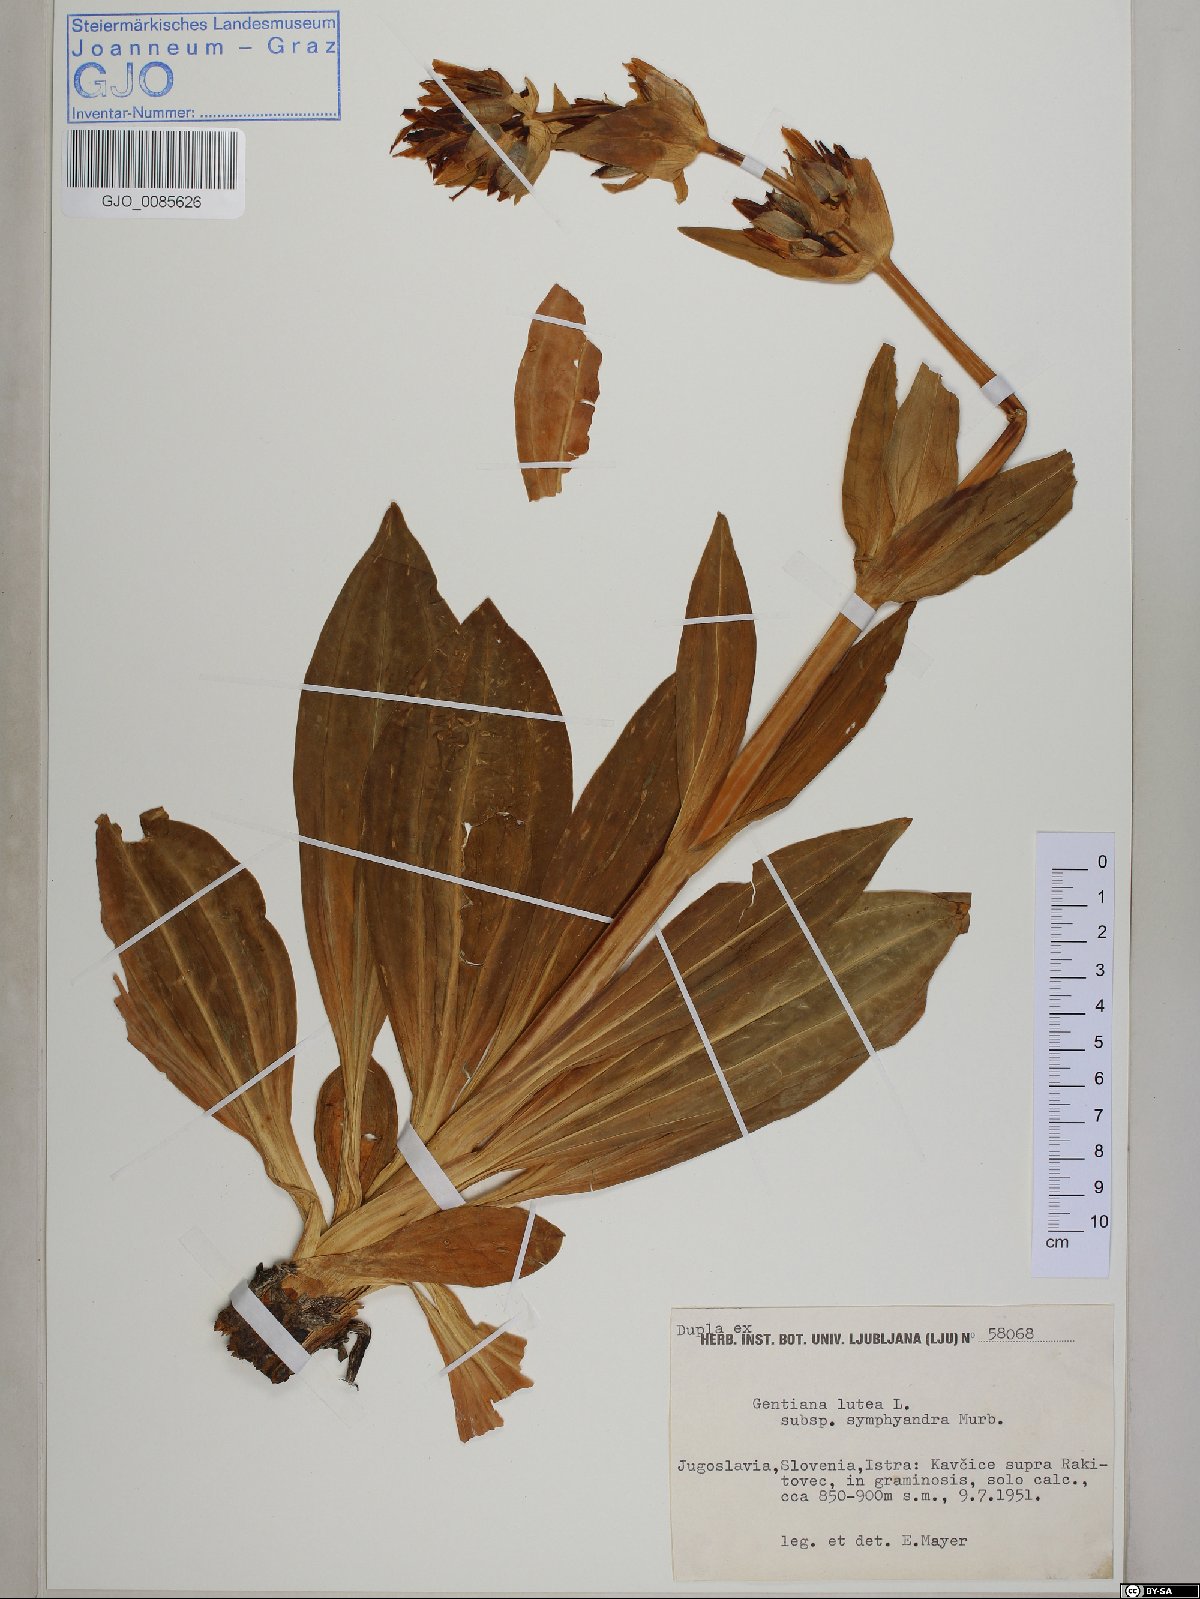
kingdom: Plantae
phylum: Tracheophyta
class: Magnoliopsida
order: Gentianales
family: Gentianaceae
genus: Gentiana
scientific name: Gentiana lutea
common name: Great yellow gentian
